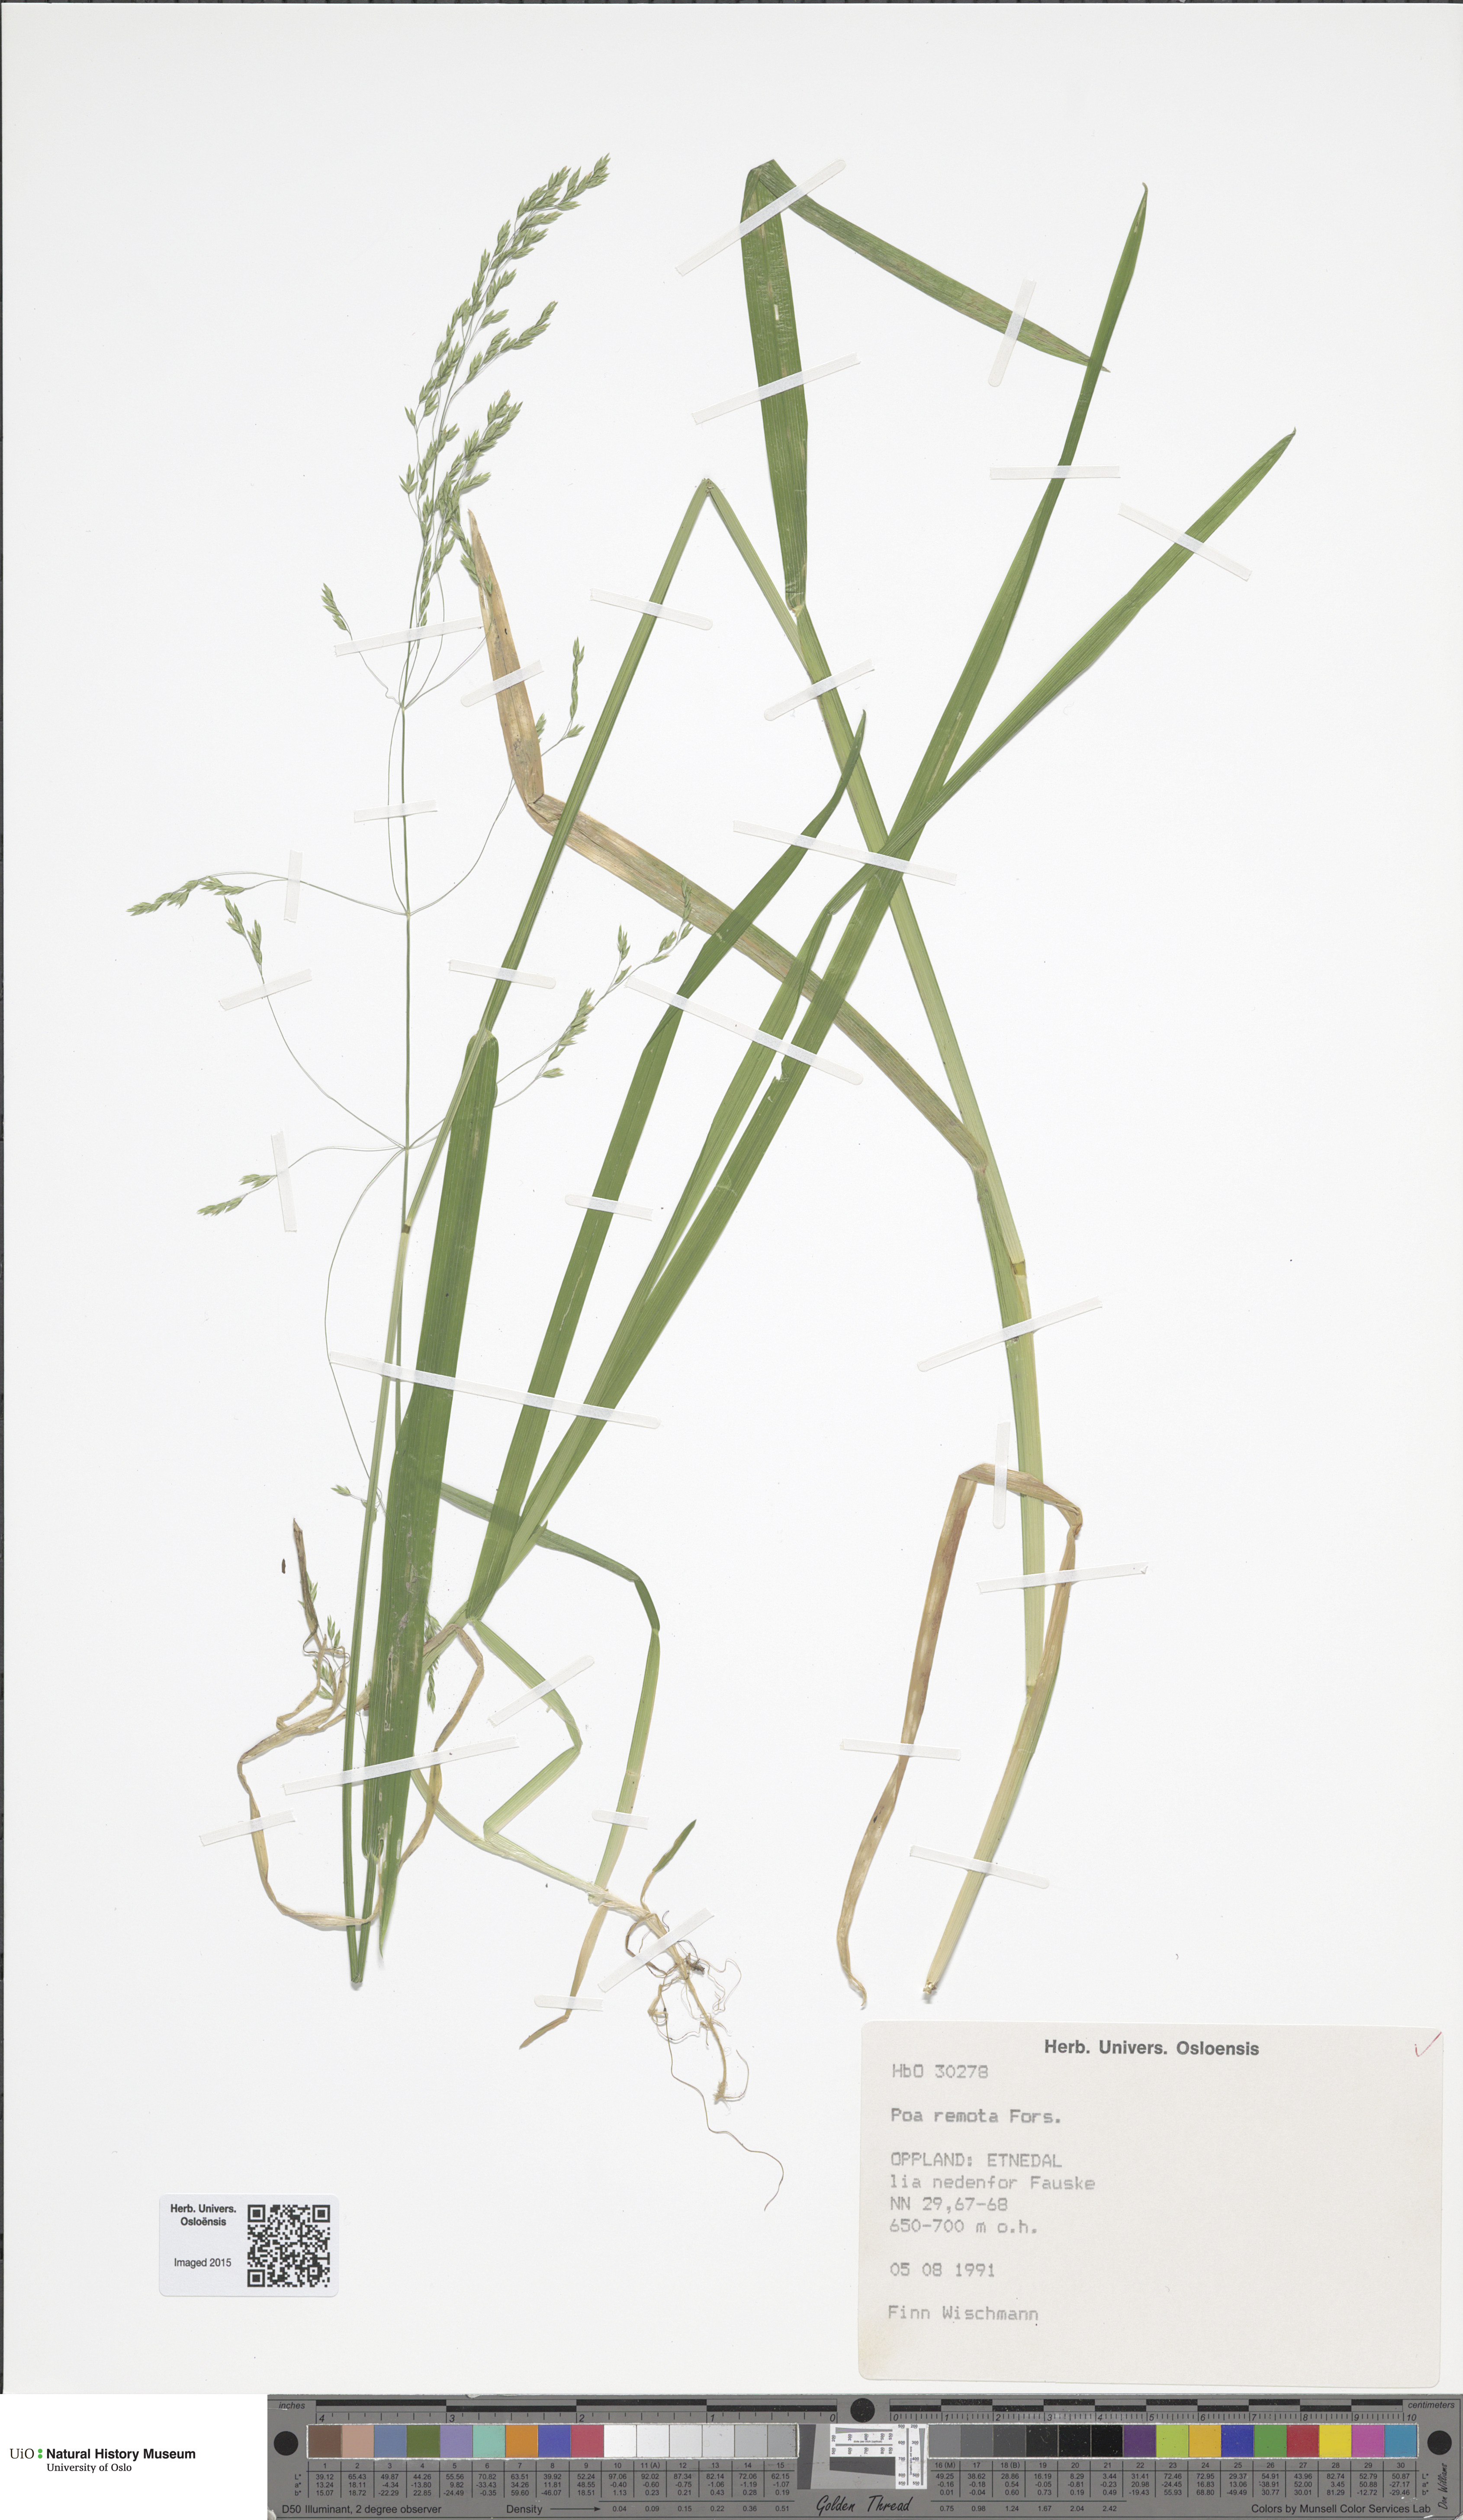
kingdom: Plantae
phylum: Tracheophyta
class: Liliopsida
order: Poales
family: Poaceae
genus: Poa
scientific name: Poa remota
